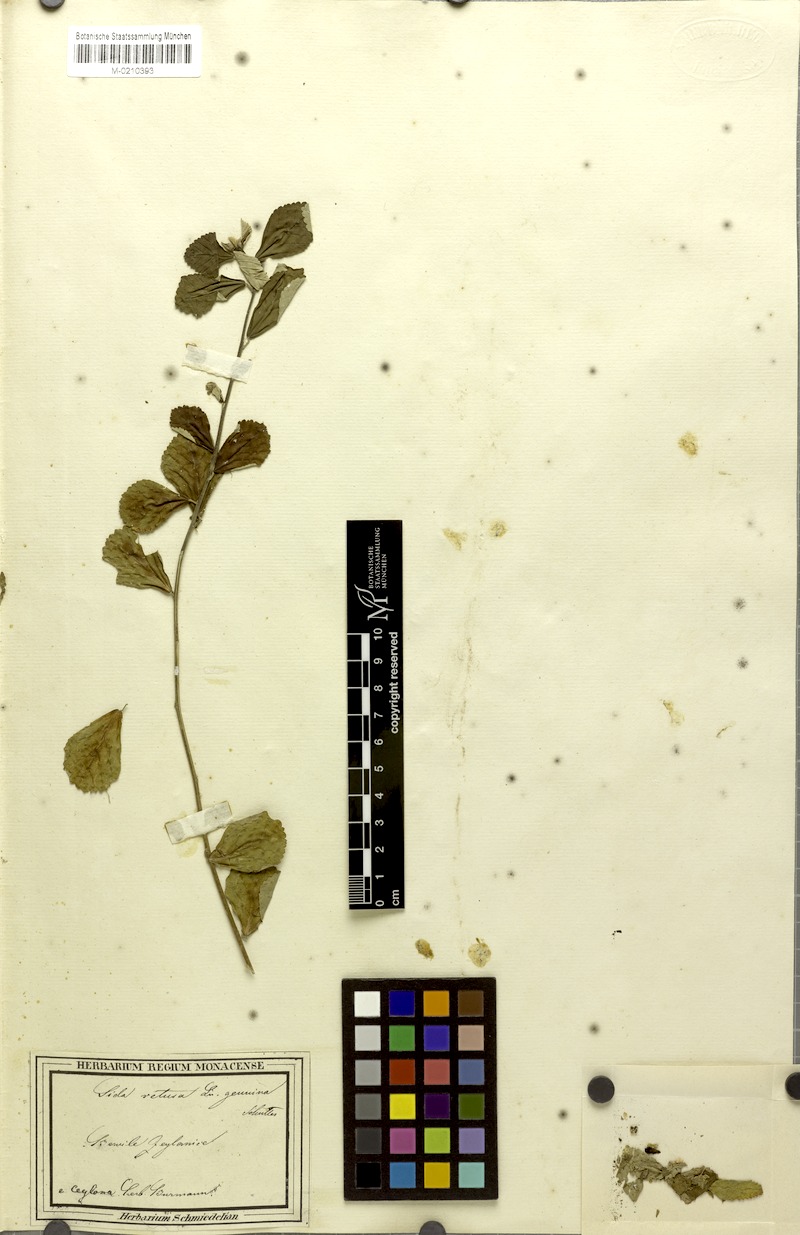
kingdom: Plantae
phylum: Tracheophyta
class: Magnoliopsida
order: Malvales
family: Malvaceae
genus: Sida
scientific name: Sida alnifolia
